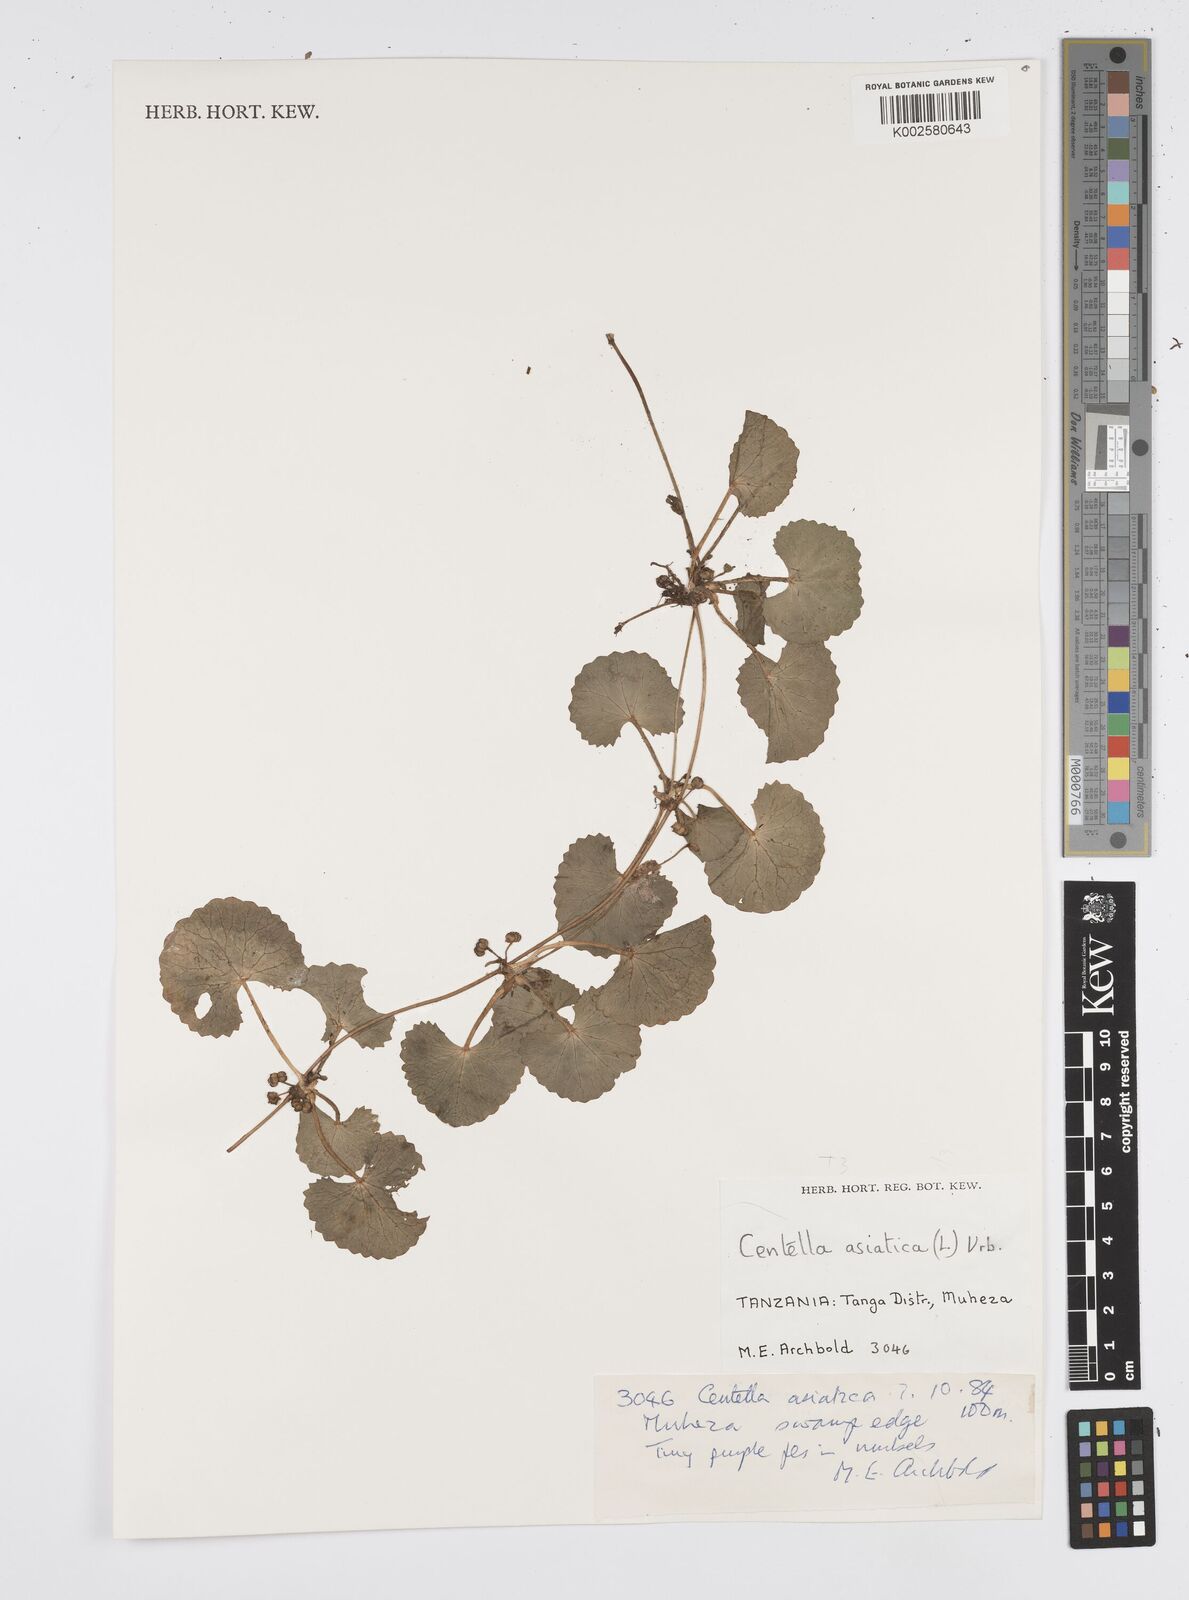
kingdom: Plantae
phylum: Tracheophyta
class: Magnoliopsida
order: Apiales
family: Apiaceae
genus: Centella
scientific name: Centella asiatica
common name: Spadeleaf
